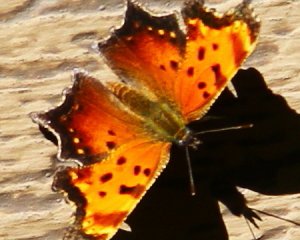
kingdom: Animalia
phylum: Arthropoda
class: Insecta
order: Lepidoptera
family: Nymphalidae
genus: Polygonia
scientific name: Polygonia progne
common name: Gray Comma
